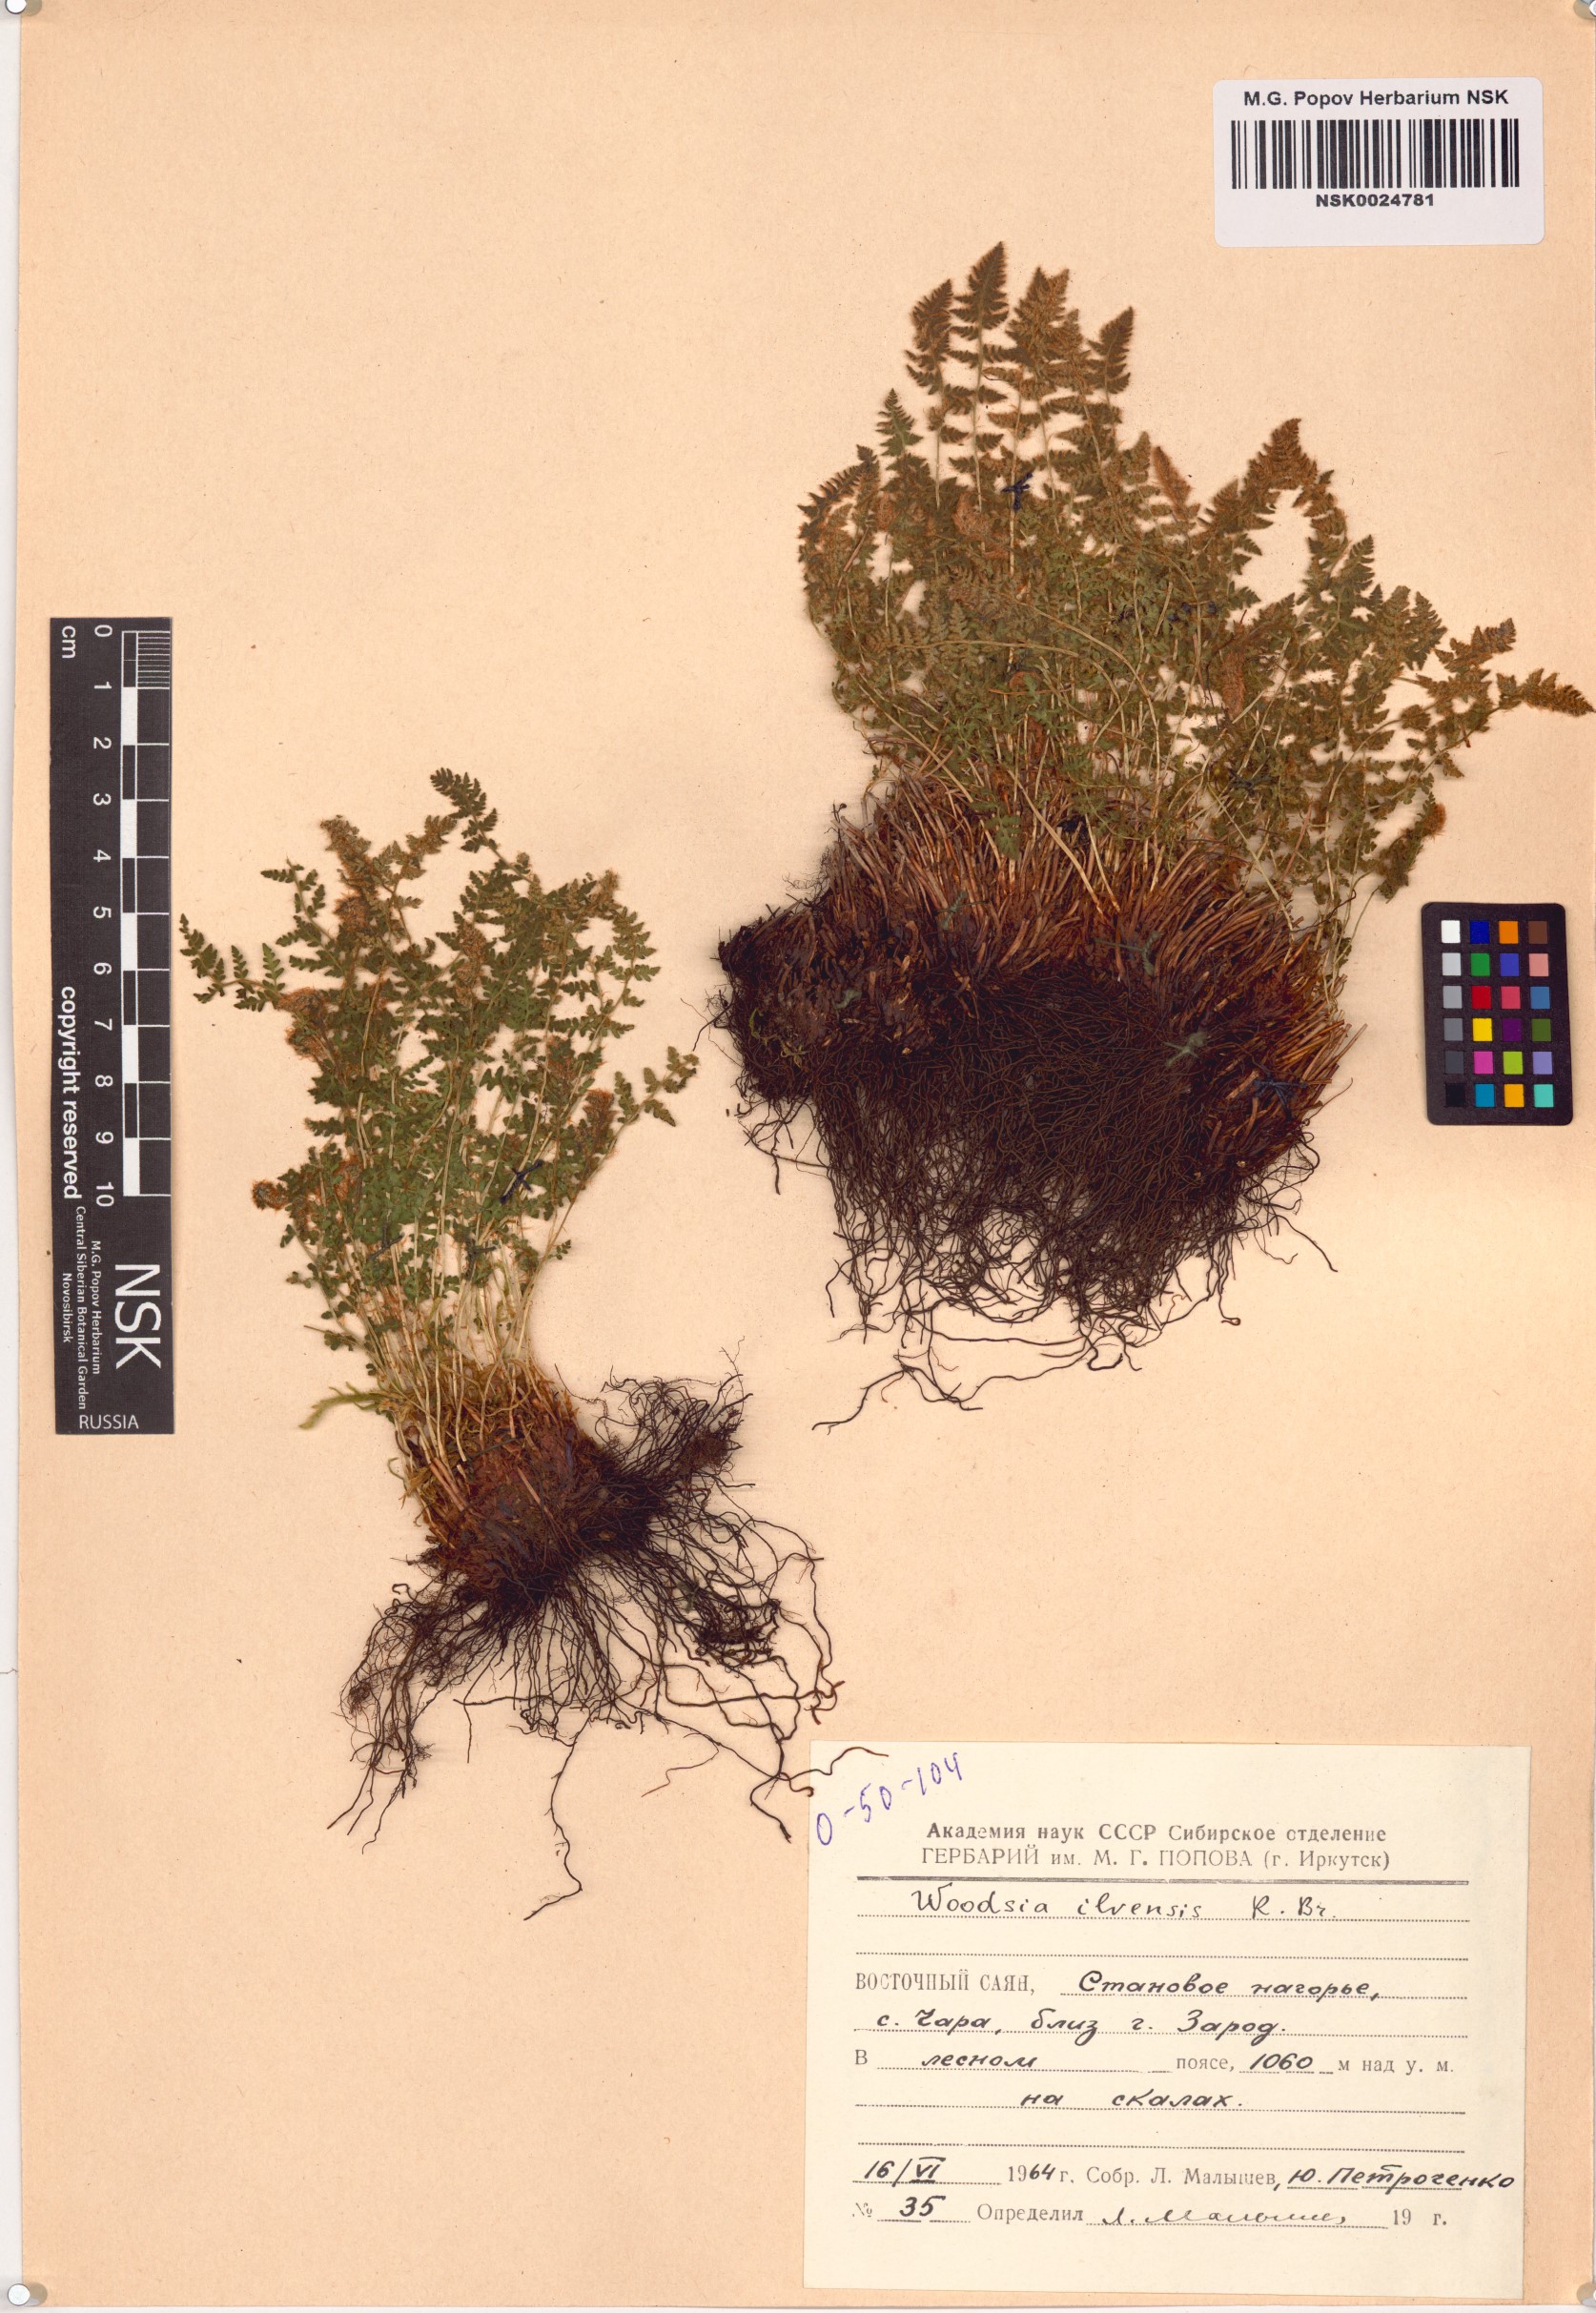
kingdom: Plantae
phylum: Tracheophyta
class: Polypodiopsida
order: Polypodiales
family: Woodsiaceae
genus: Woodsia
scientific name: Woodsia ilvensis
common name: Fragrant woodsia
